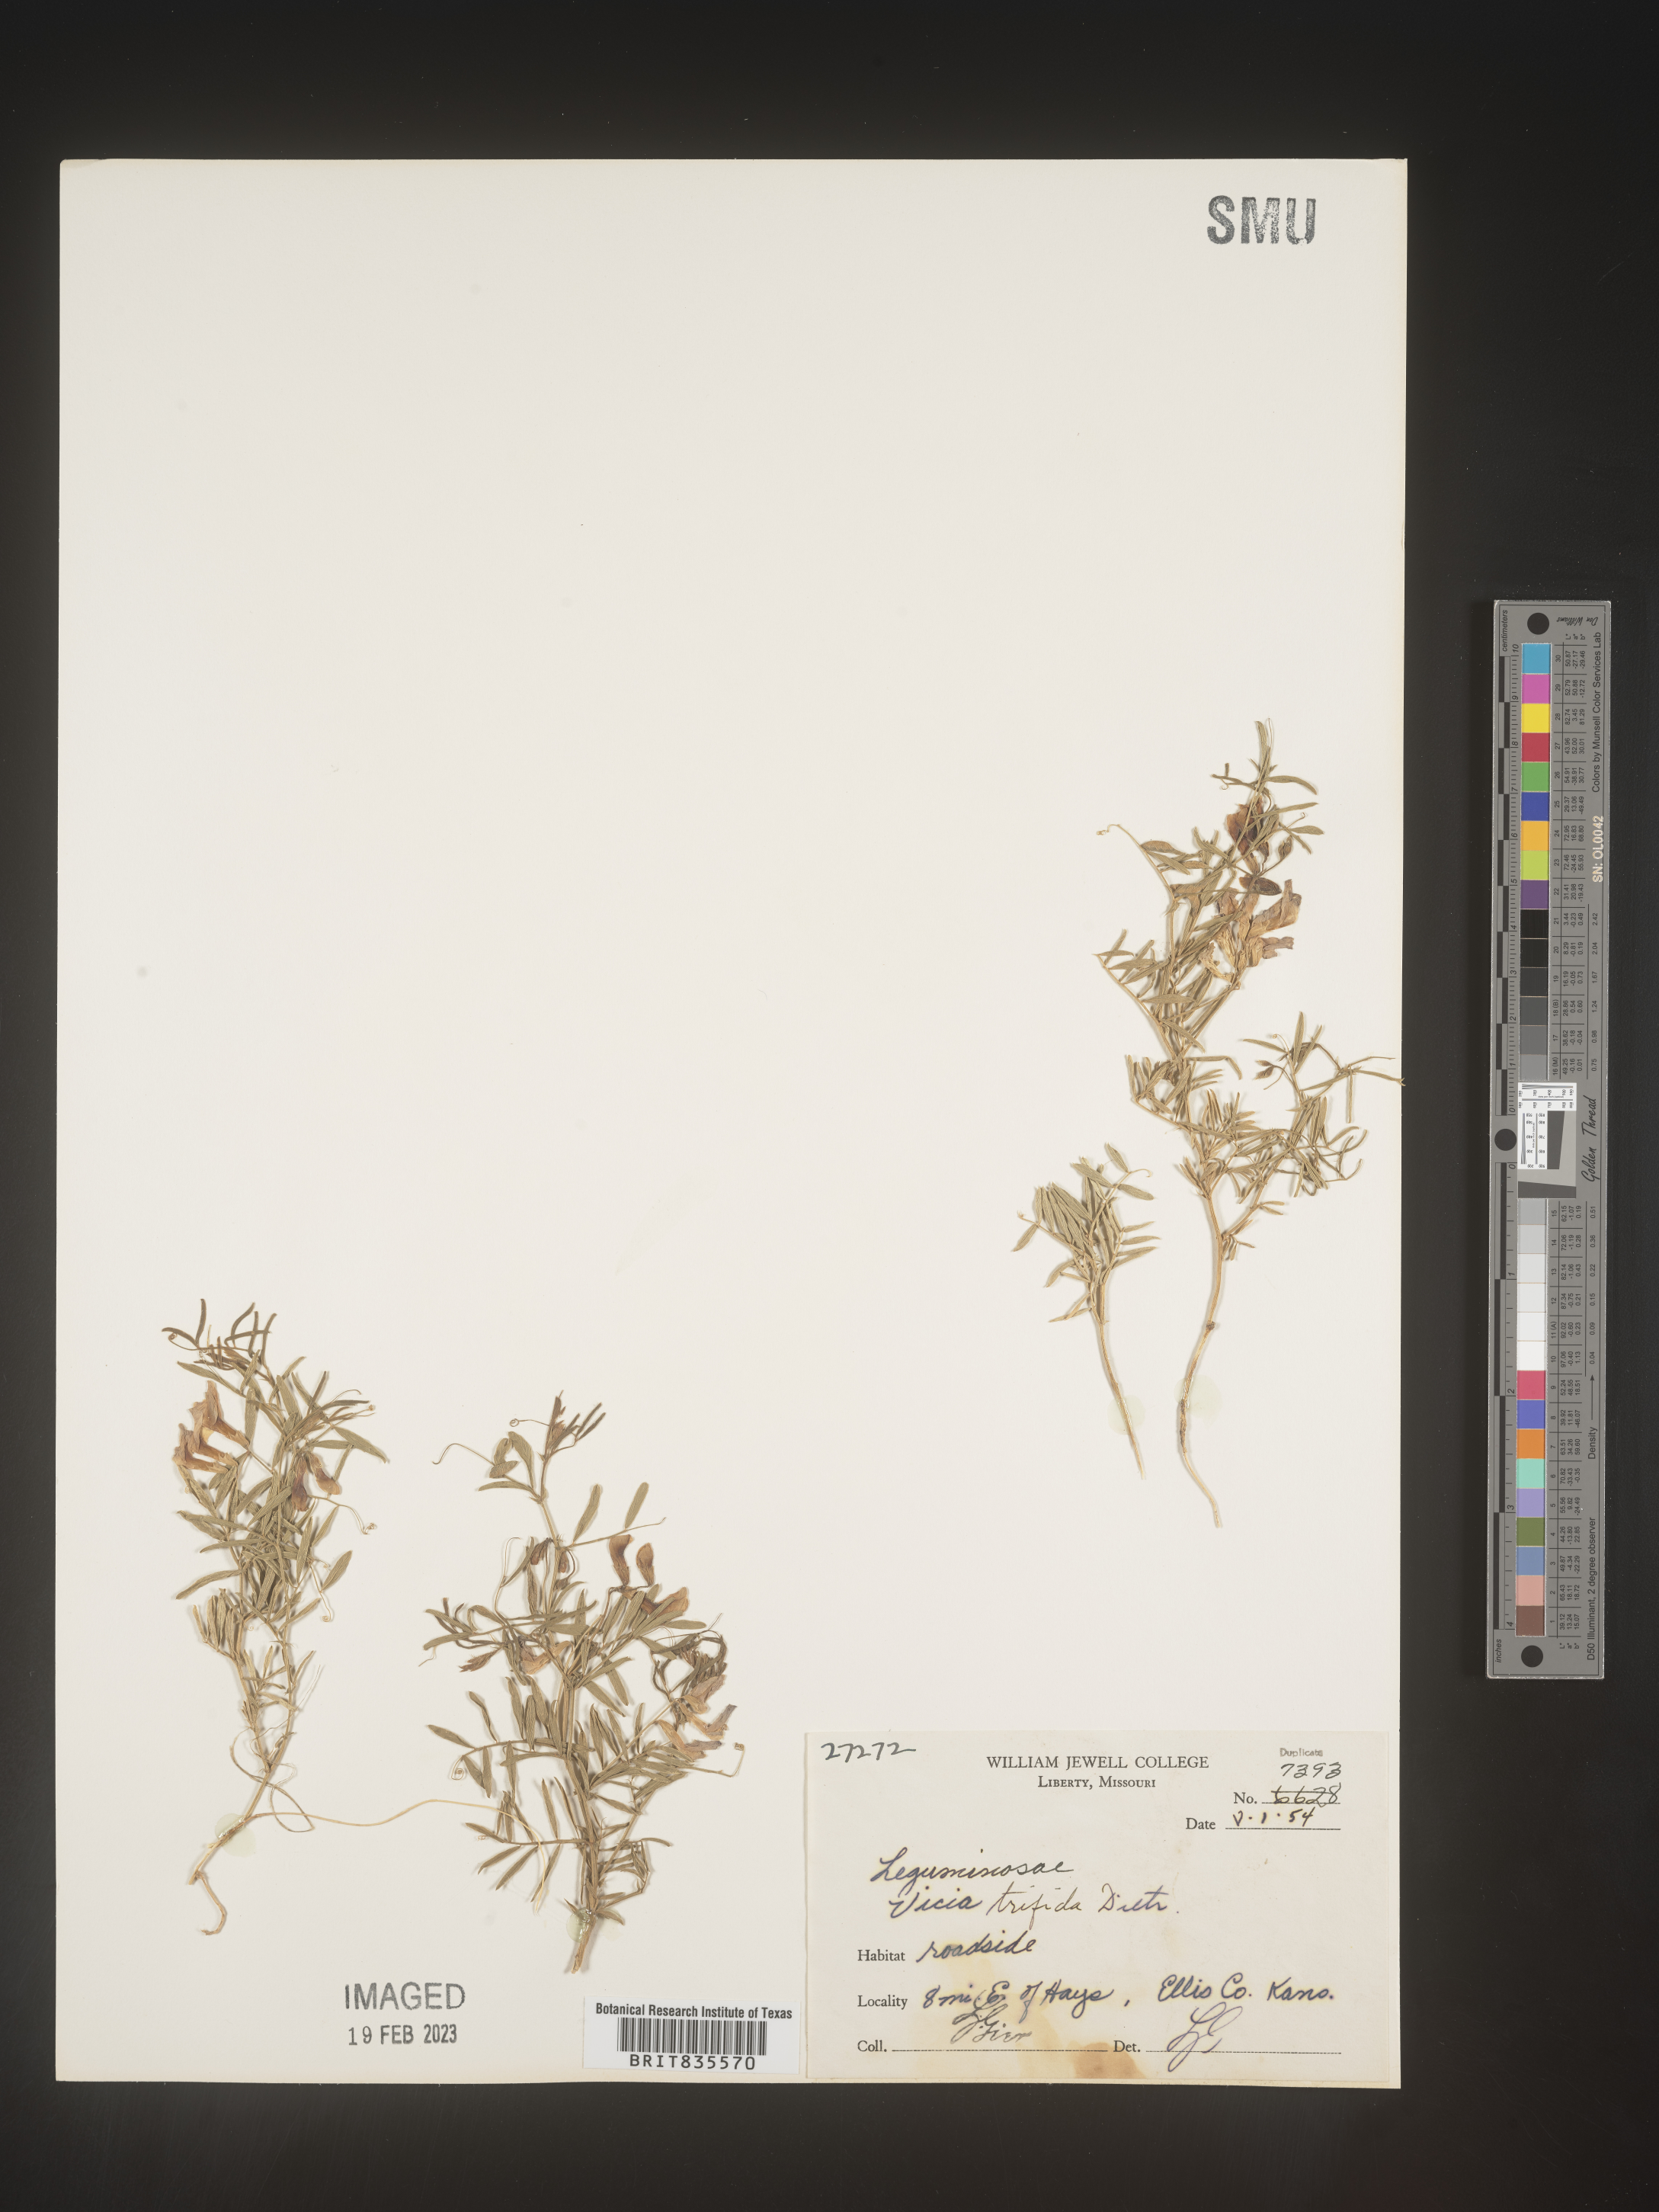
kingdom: Plantae
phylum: Tracheophyta
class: Magnoliopsida
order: Fabales
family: Fabaceae
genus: Vicia
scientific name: Vicia americana
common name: American vetch
